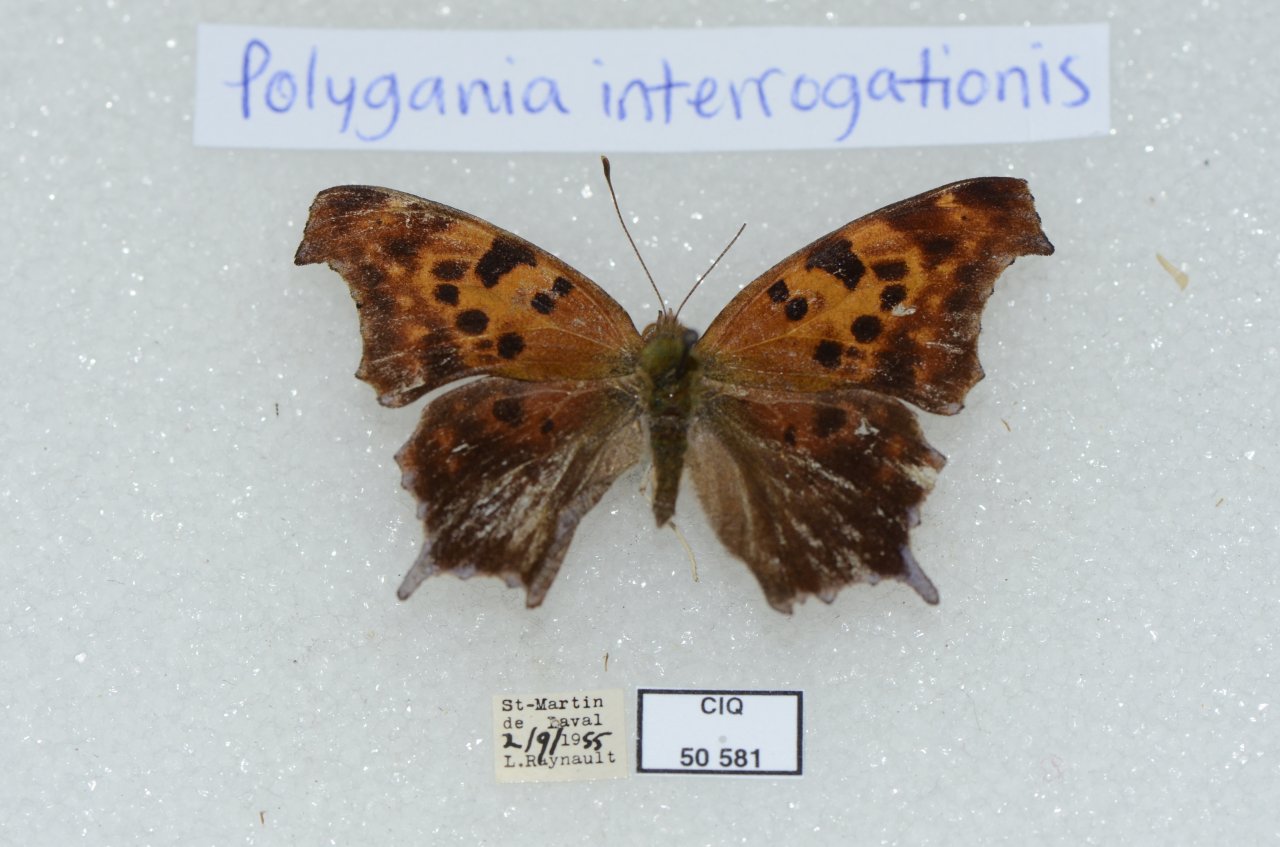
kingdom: Animalia
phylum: Arthropoda
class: Insecta
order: Lepidoptera
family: Nymphalidae
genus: Polygonia
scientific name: Polygonia interrogationis
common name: Question Mark
